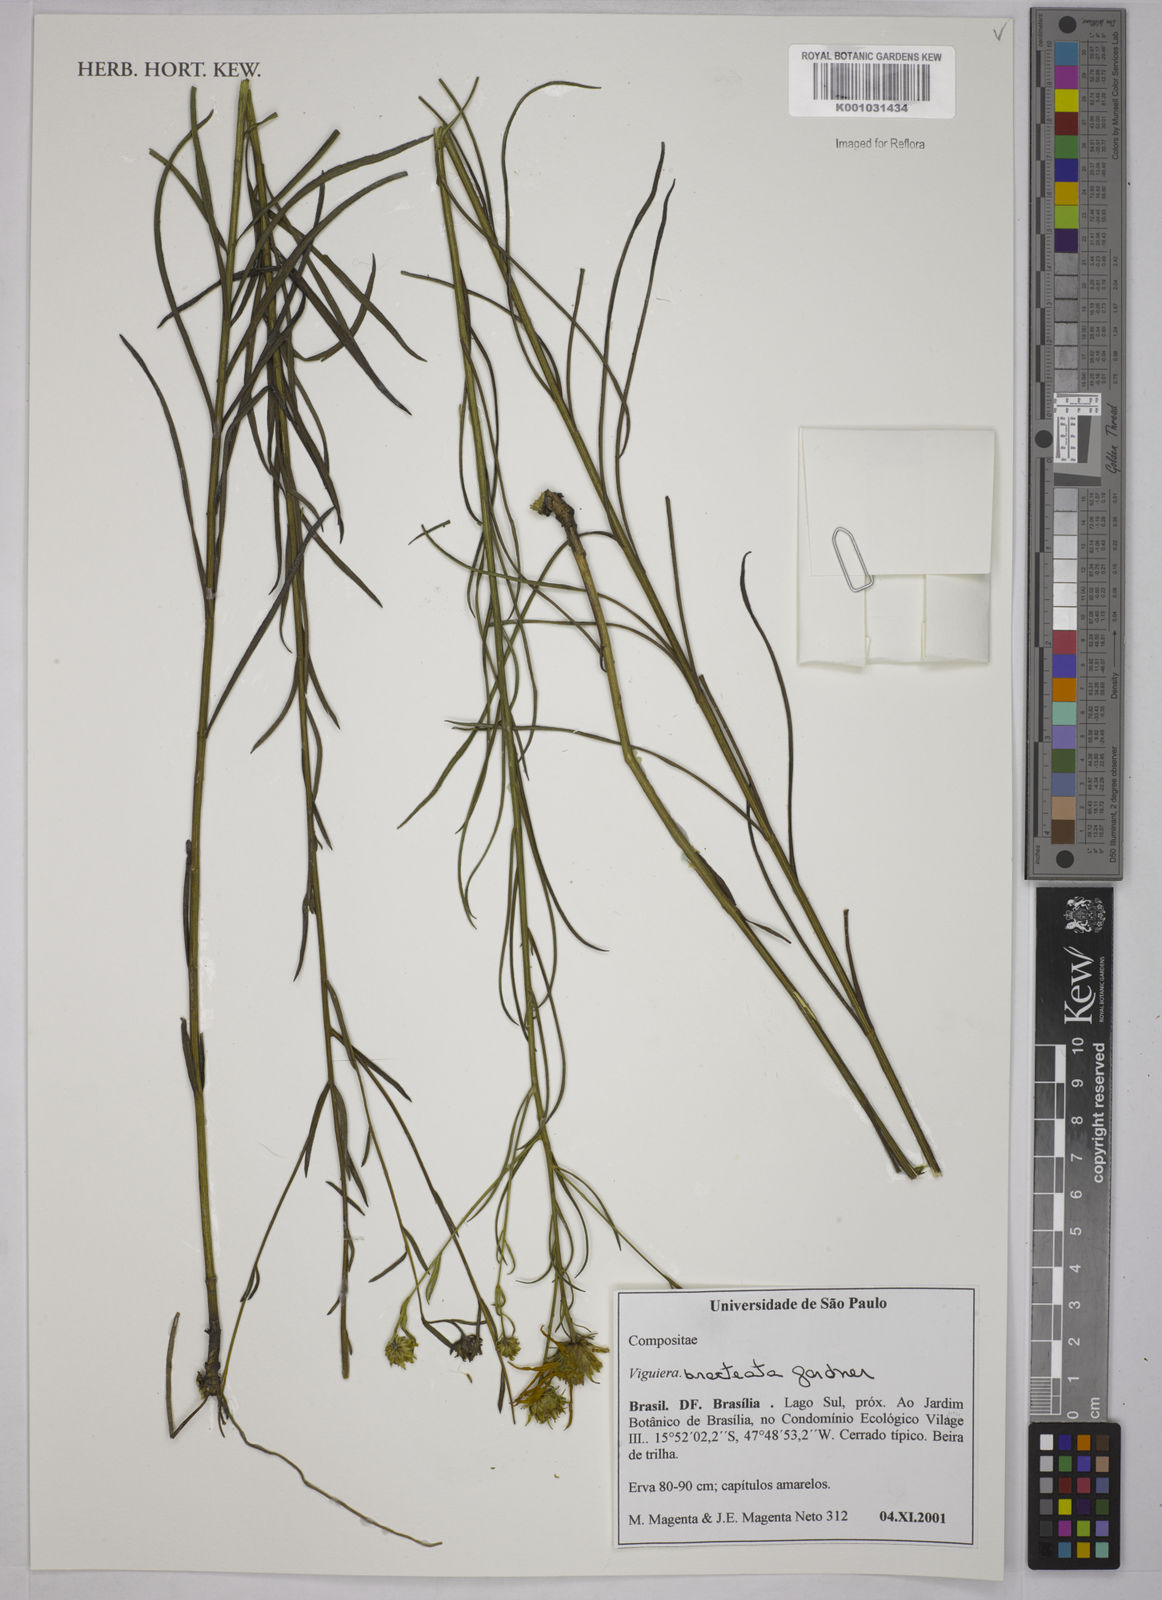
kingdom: Plantae
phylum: Tracheophyta
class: Magnoliopsida
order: Asterales
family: Asteraceae
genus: Aldama
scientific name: Aldama bracteata
